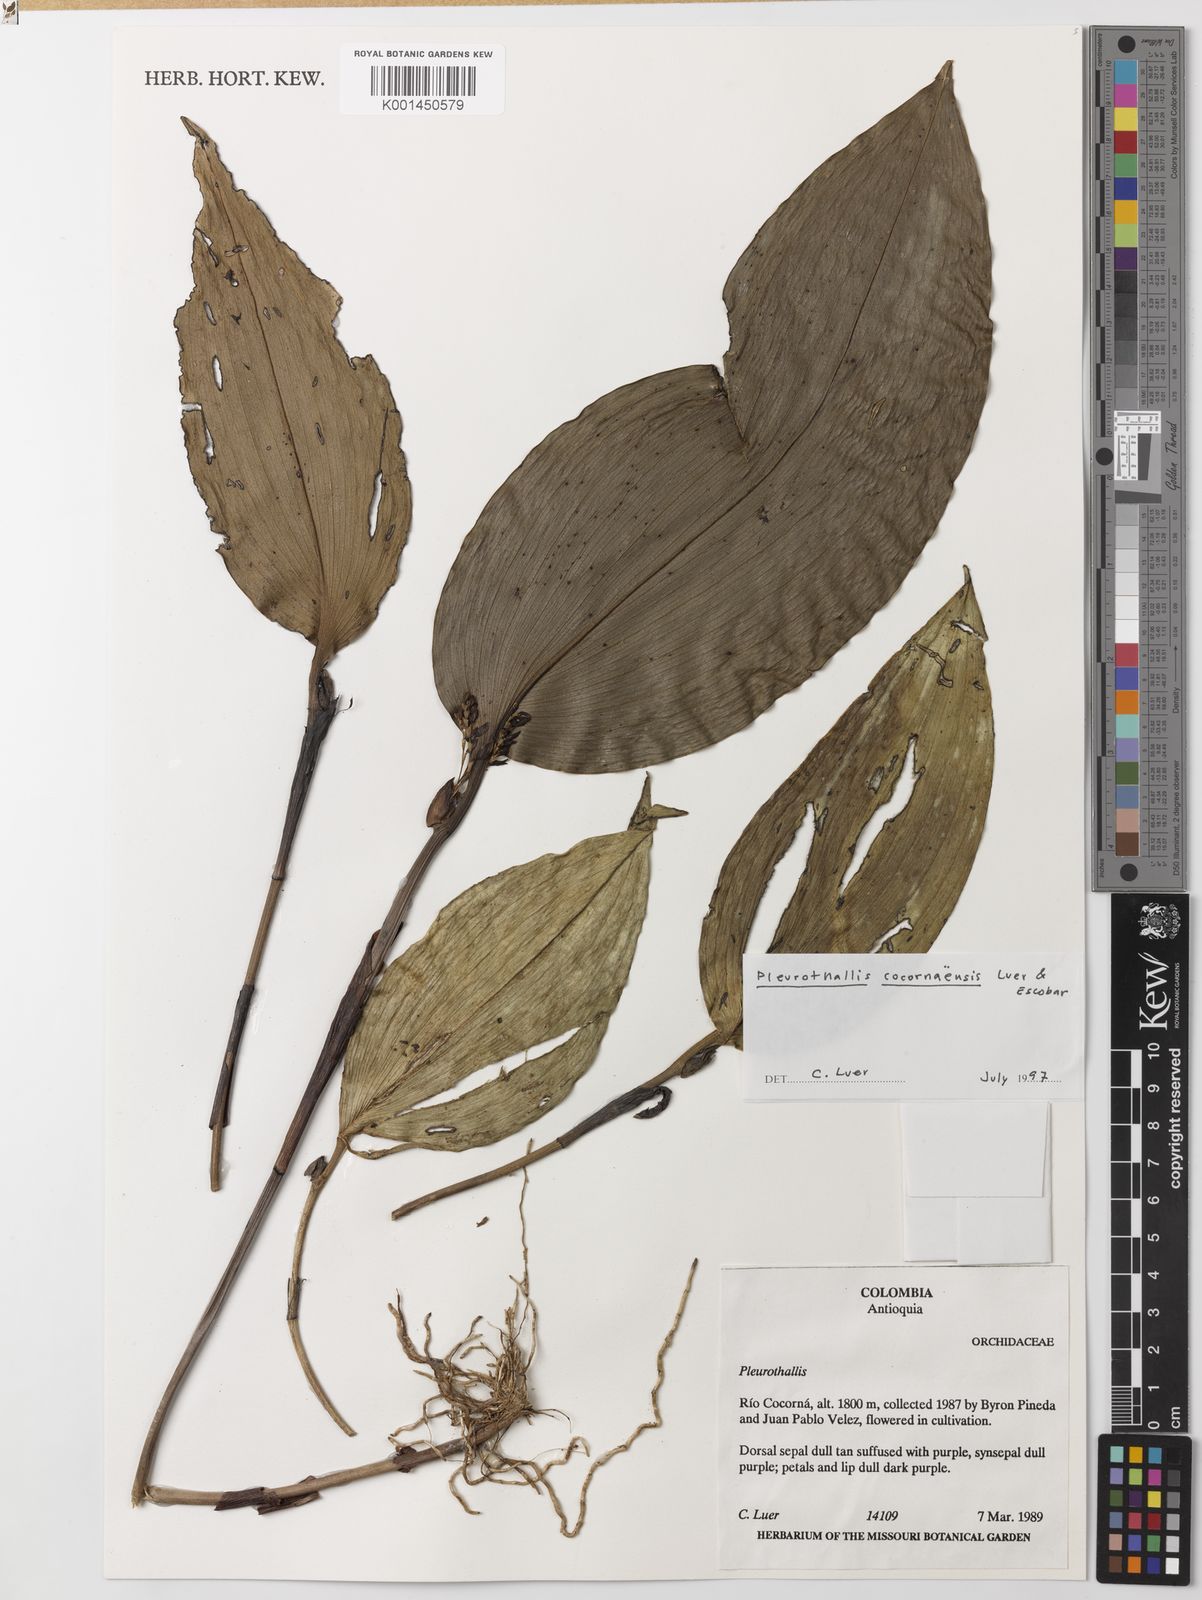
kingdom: Plantae
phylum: Tracheophyta
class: Liliopsida
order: Asparagales
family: Orchidaceae
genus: Stelis
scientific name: Stelis cocornaensis
